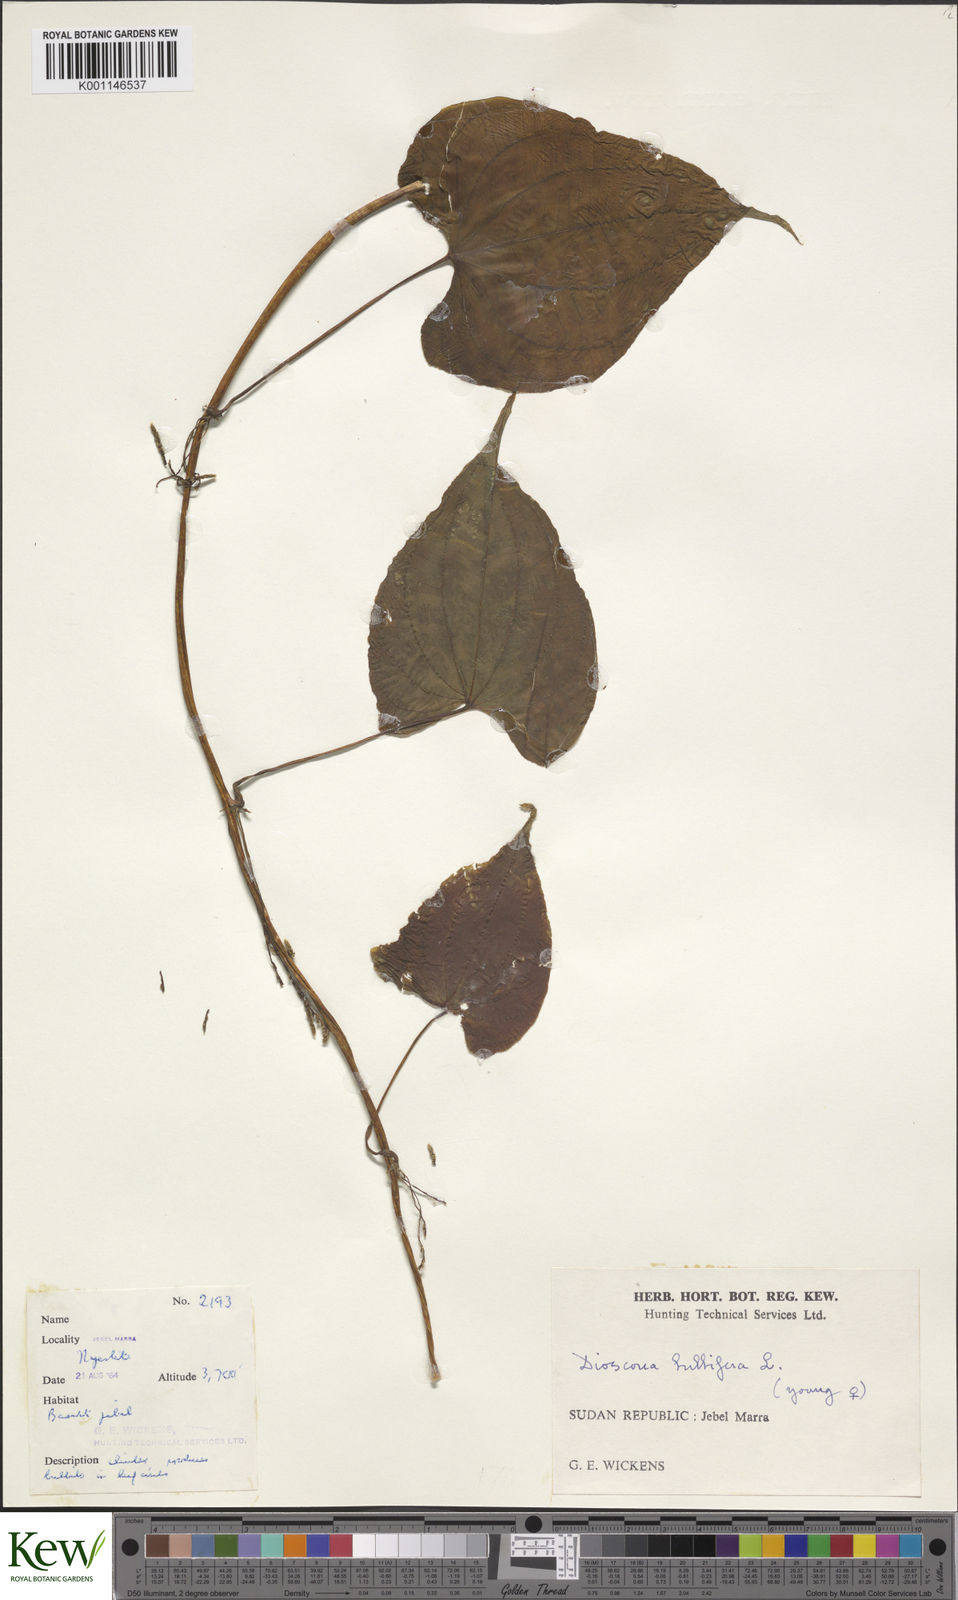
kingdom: Plantae
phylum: Tracheophyta
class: Liliopsida
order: Dioscoreales
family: Dioscoreaceae
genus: Dioscorea
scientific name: Dioscorea bulbifera
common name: Air yam
